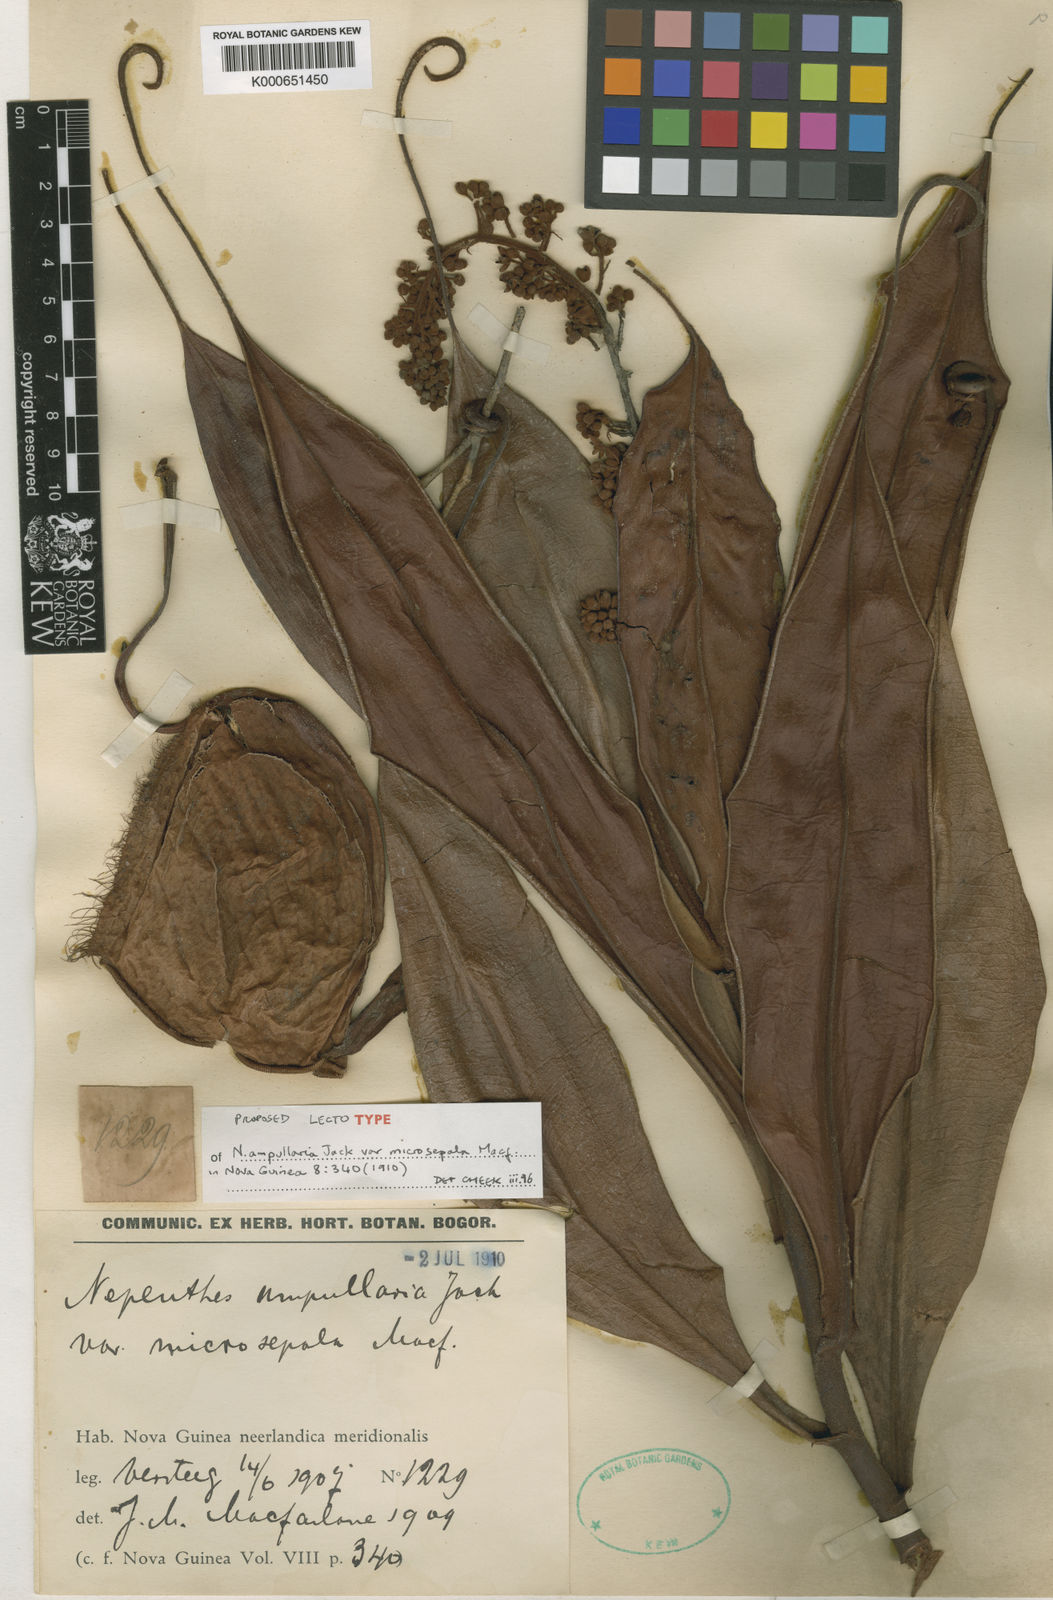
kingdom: Plantae
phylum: Tracheophyta
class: Magnoliopsida
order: Caryophyllales
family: Nepenthaceae
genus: Nepenthes
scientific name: Nepenthes ampullaria
